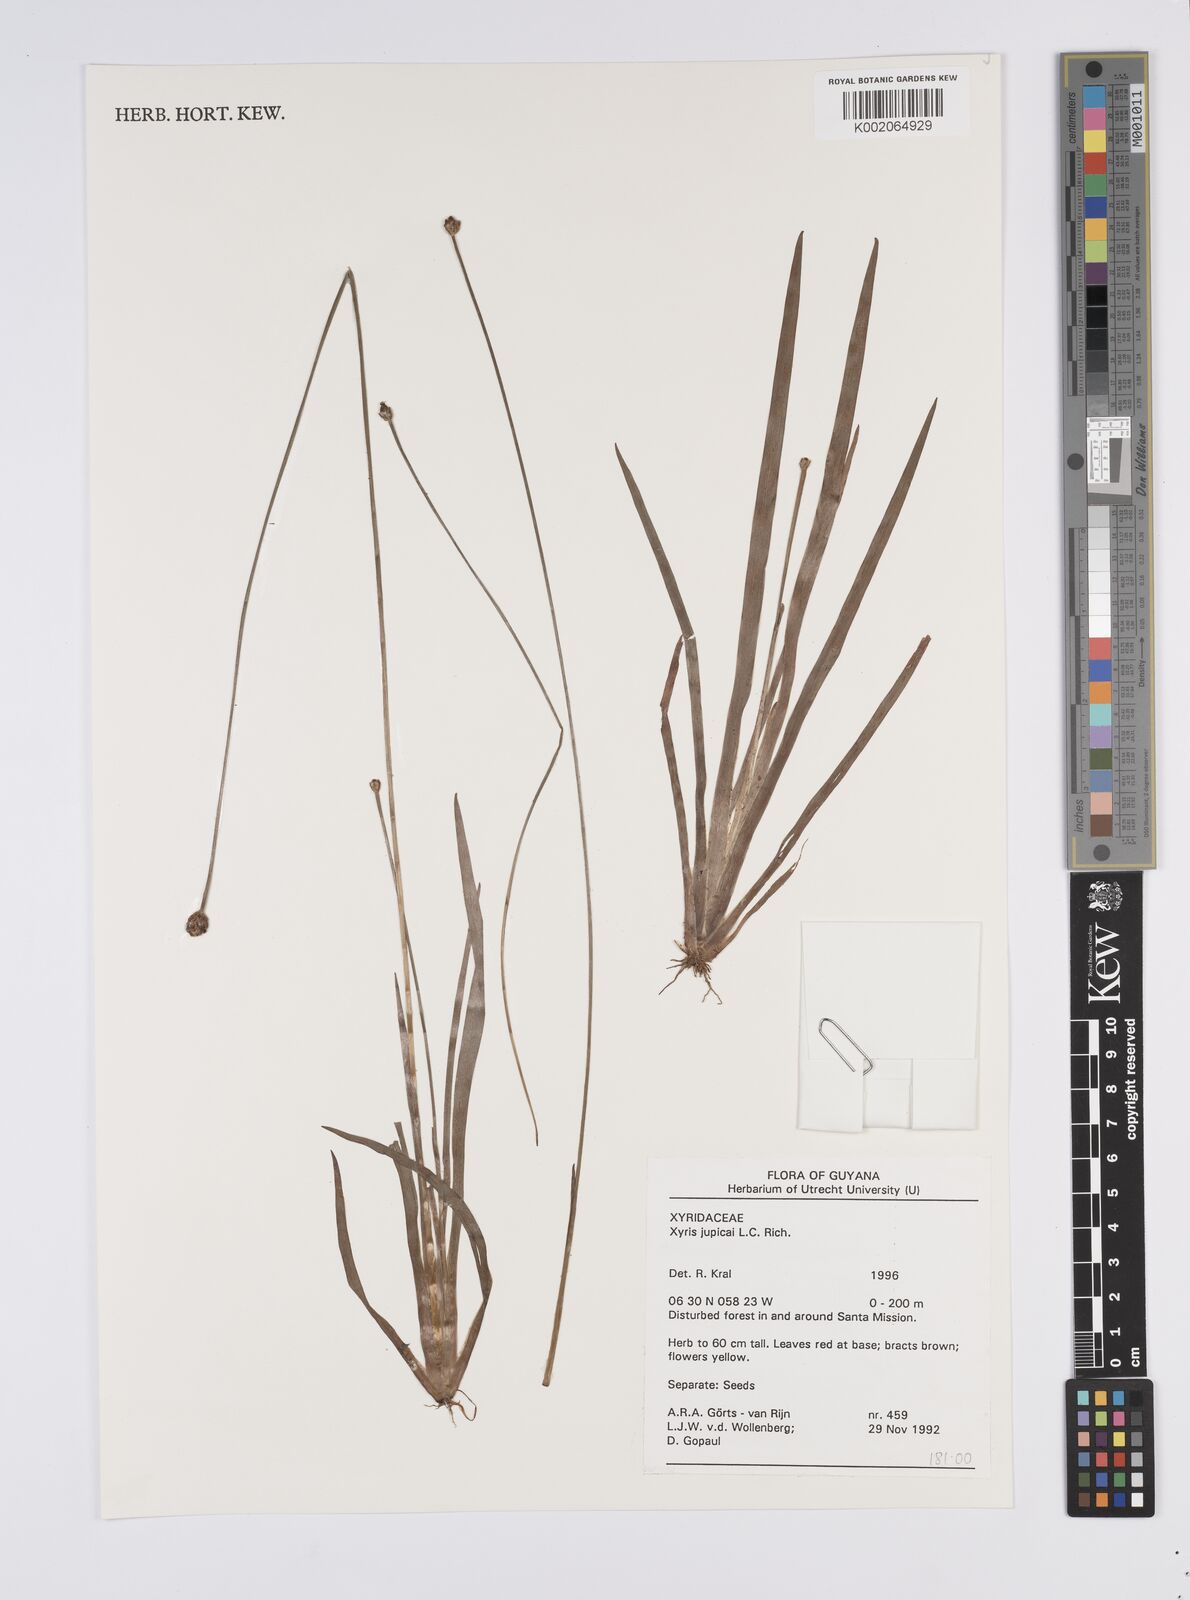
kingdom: Plantae
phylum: Tracheophyta
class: Liliopsida
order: Poales
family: Xyridaceae
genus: Xyris
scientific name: Xyris jupicai
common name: Richard's yelloweyed grass
